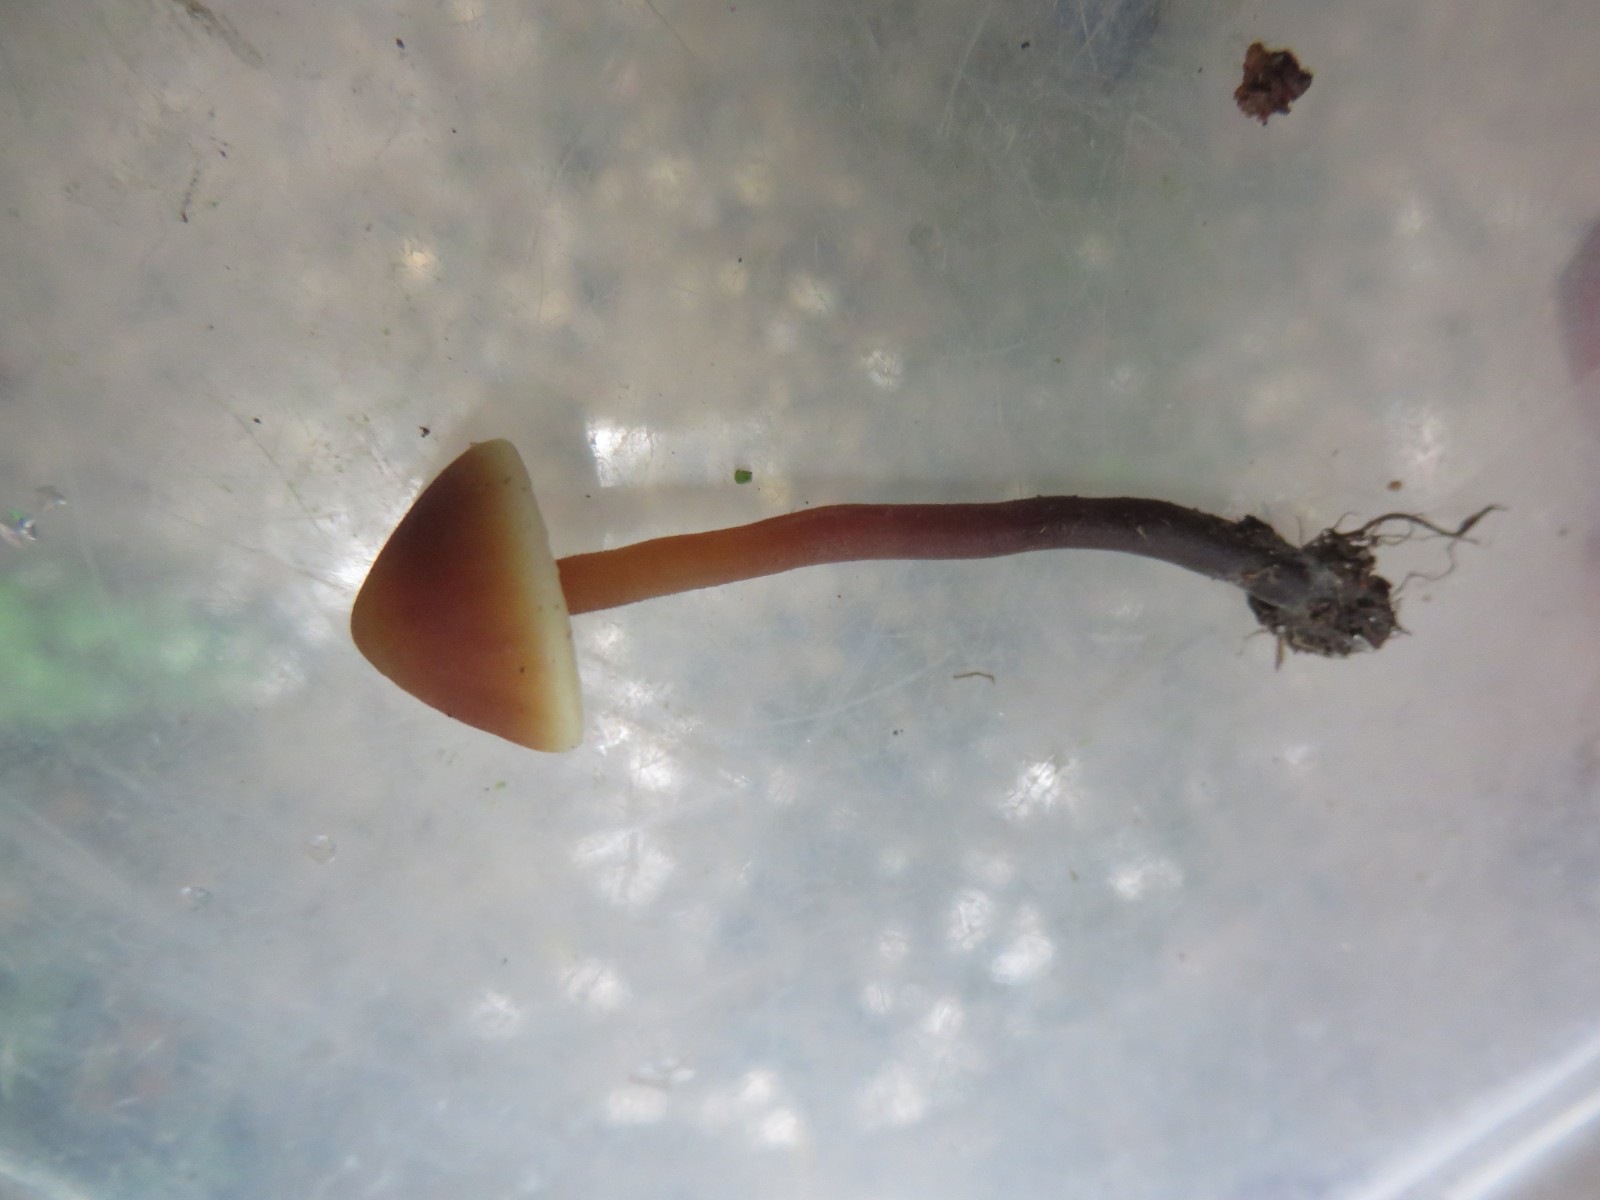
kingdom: Fungi
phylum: Basidiomycota
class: Agaricomycetes
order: Agaricales
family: Macrocystidiaceae
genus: Macrocystidia
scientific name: Macrocystidia cucumis
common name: agurkehat
